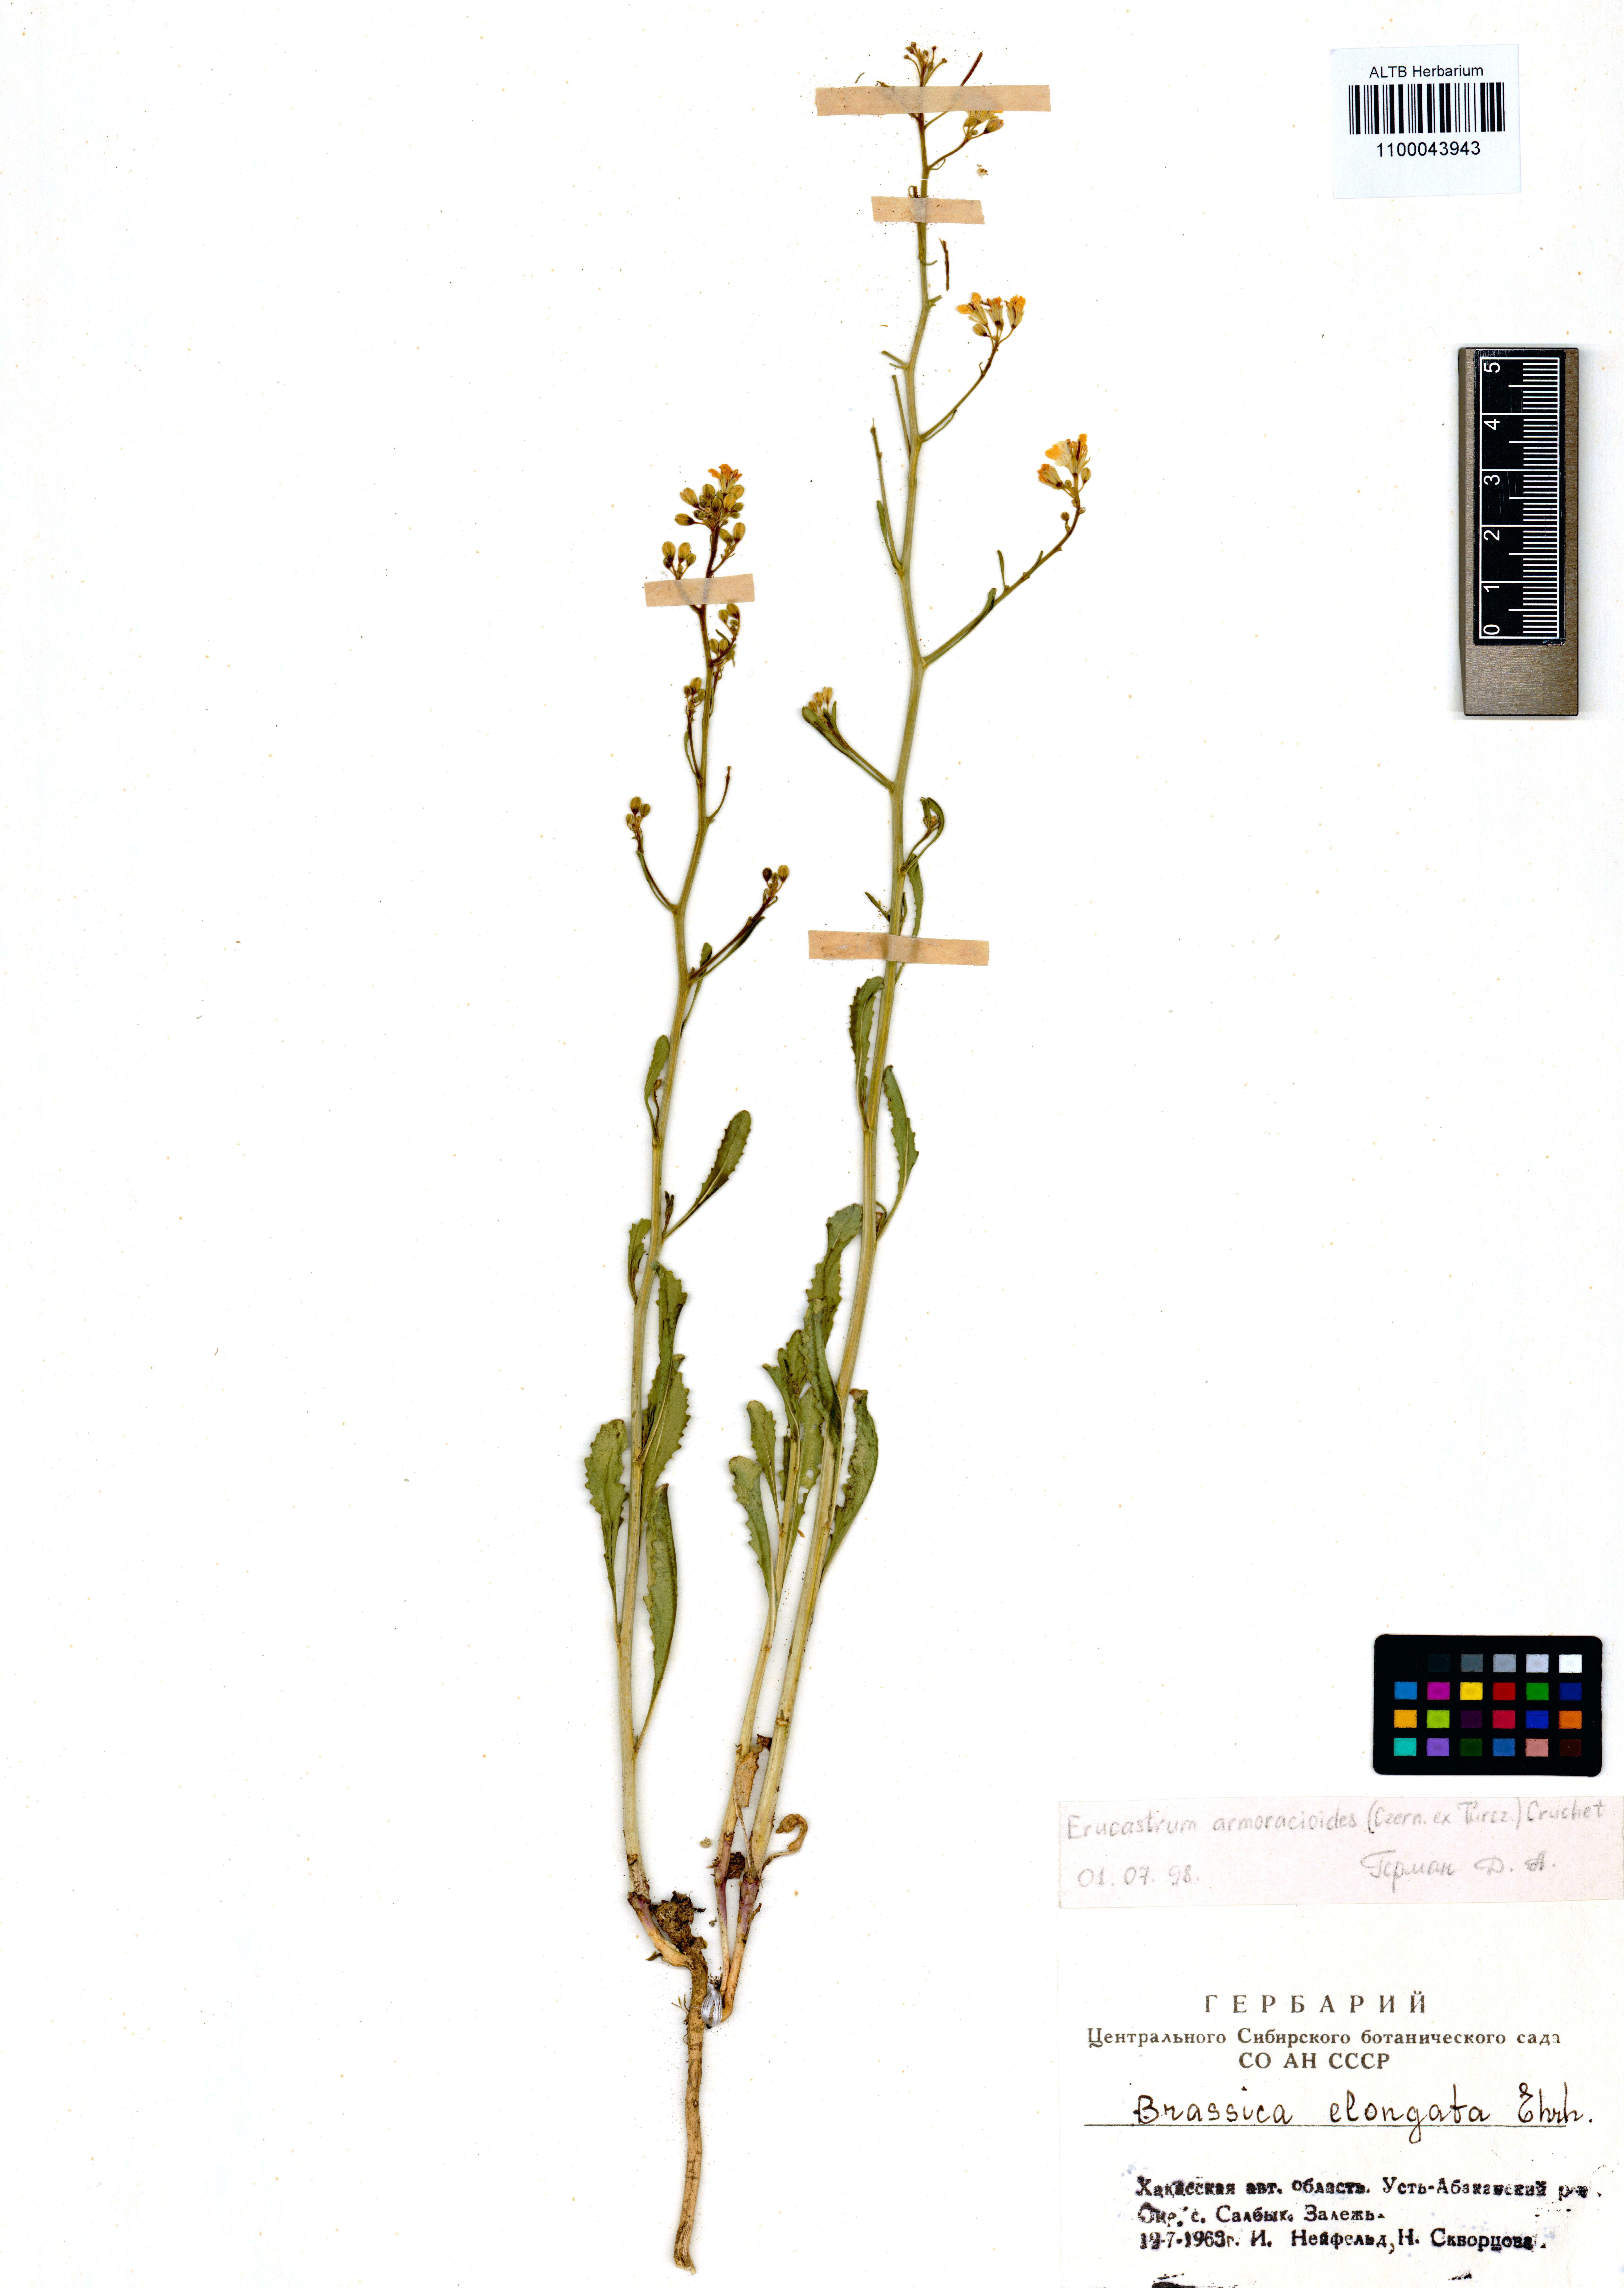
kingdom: Plantae
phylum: Tracheophyta
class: Magnoliopsida
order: Brassicales
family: Brassicaceae
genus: Brassica
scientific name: Brassica elongata
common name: Long-stalked rape
